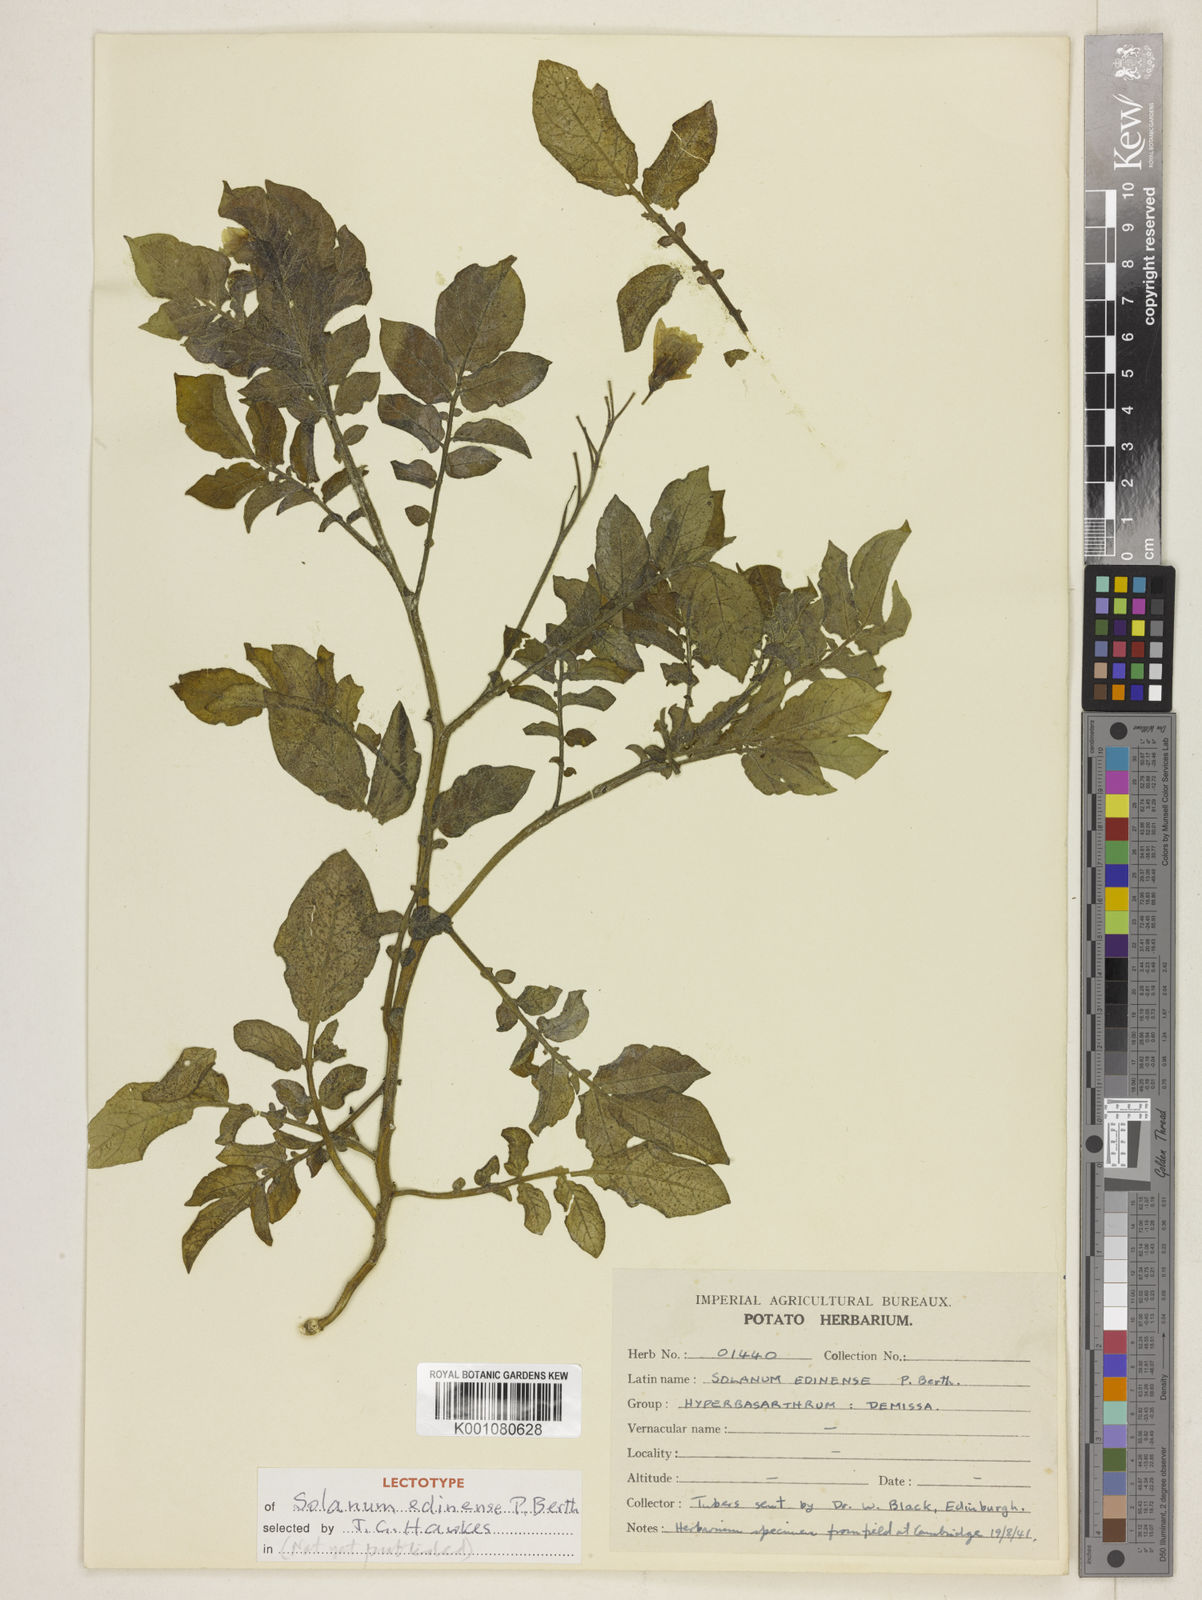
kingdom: Plantae
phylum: Tracheophyta
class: Magnoliopsida
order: Solanales
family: Solanaceae
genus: Solanum
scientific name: Solanum edinense
